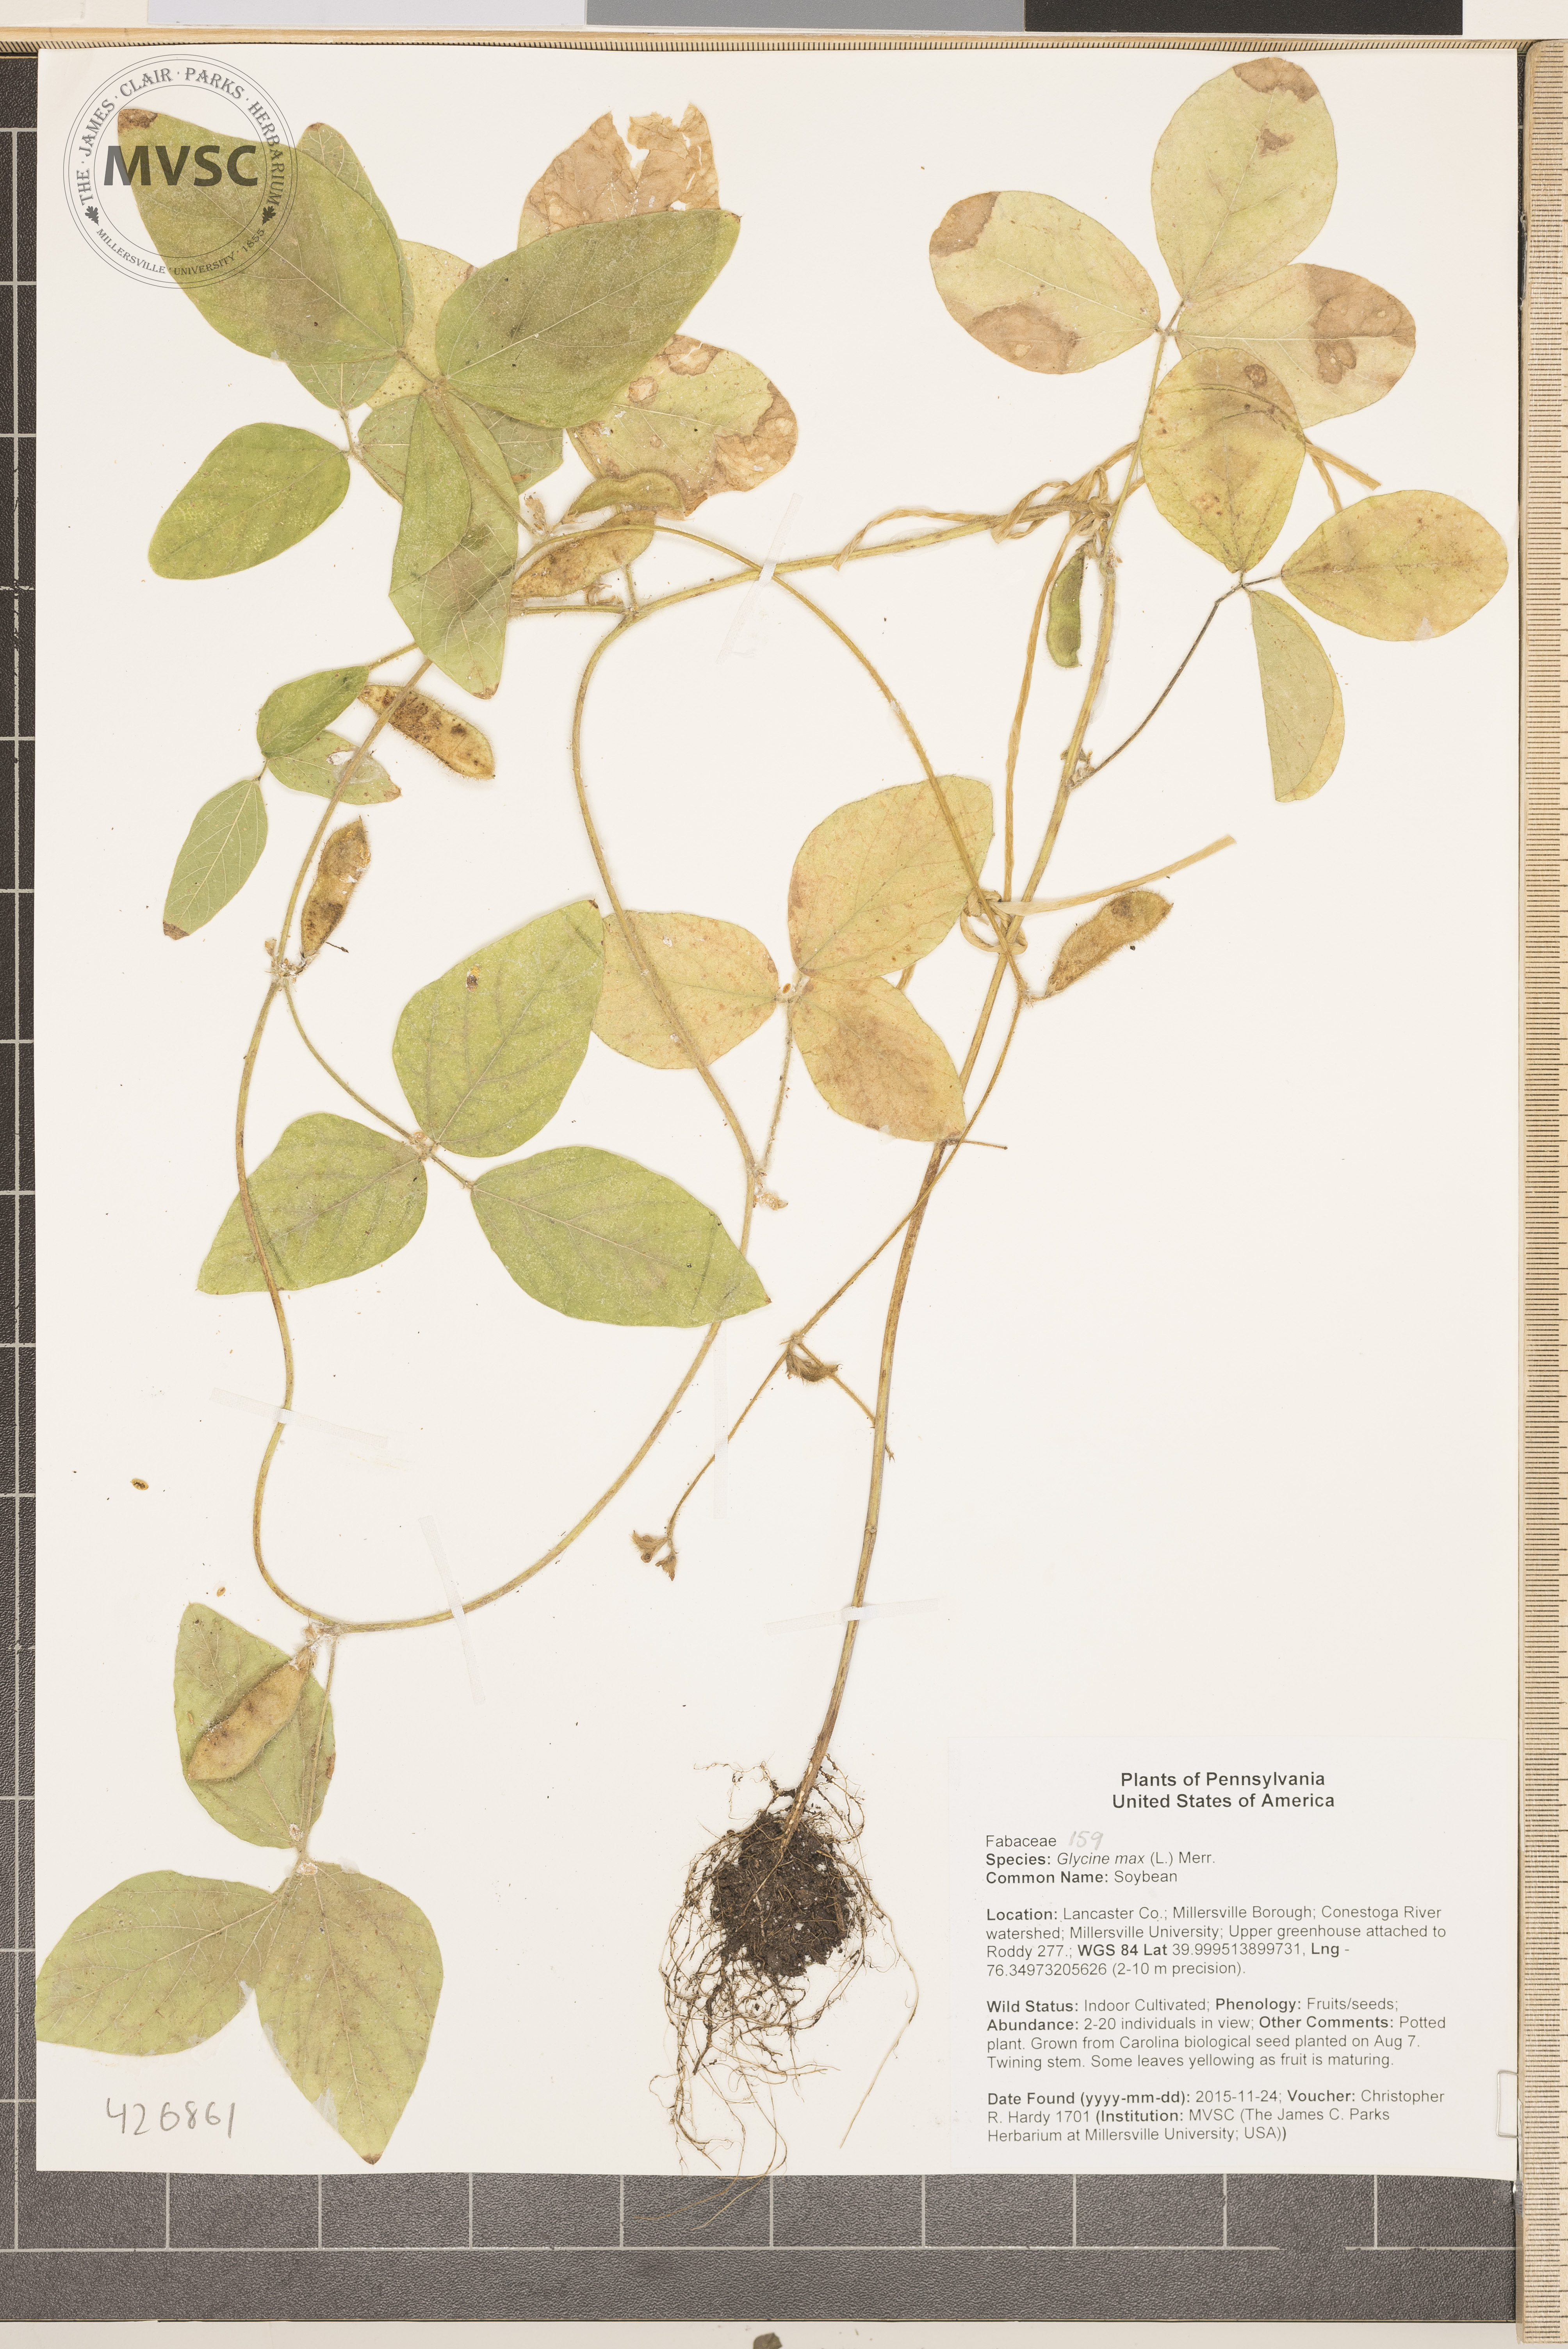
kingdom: Plantae
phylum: Tracheophyta
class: Magnoliopsida
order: Fabales
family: Fabaceae
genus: Glycine
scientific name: Glycine max
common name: Soybean
